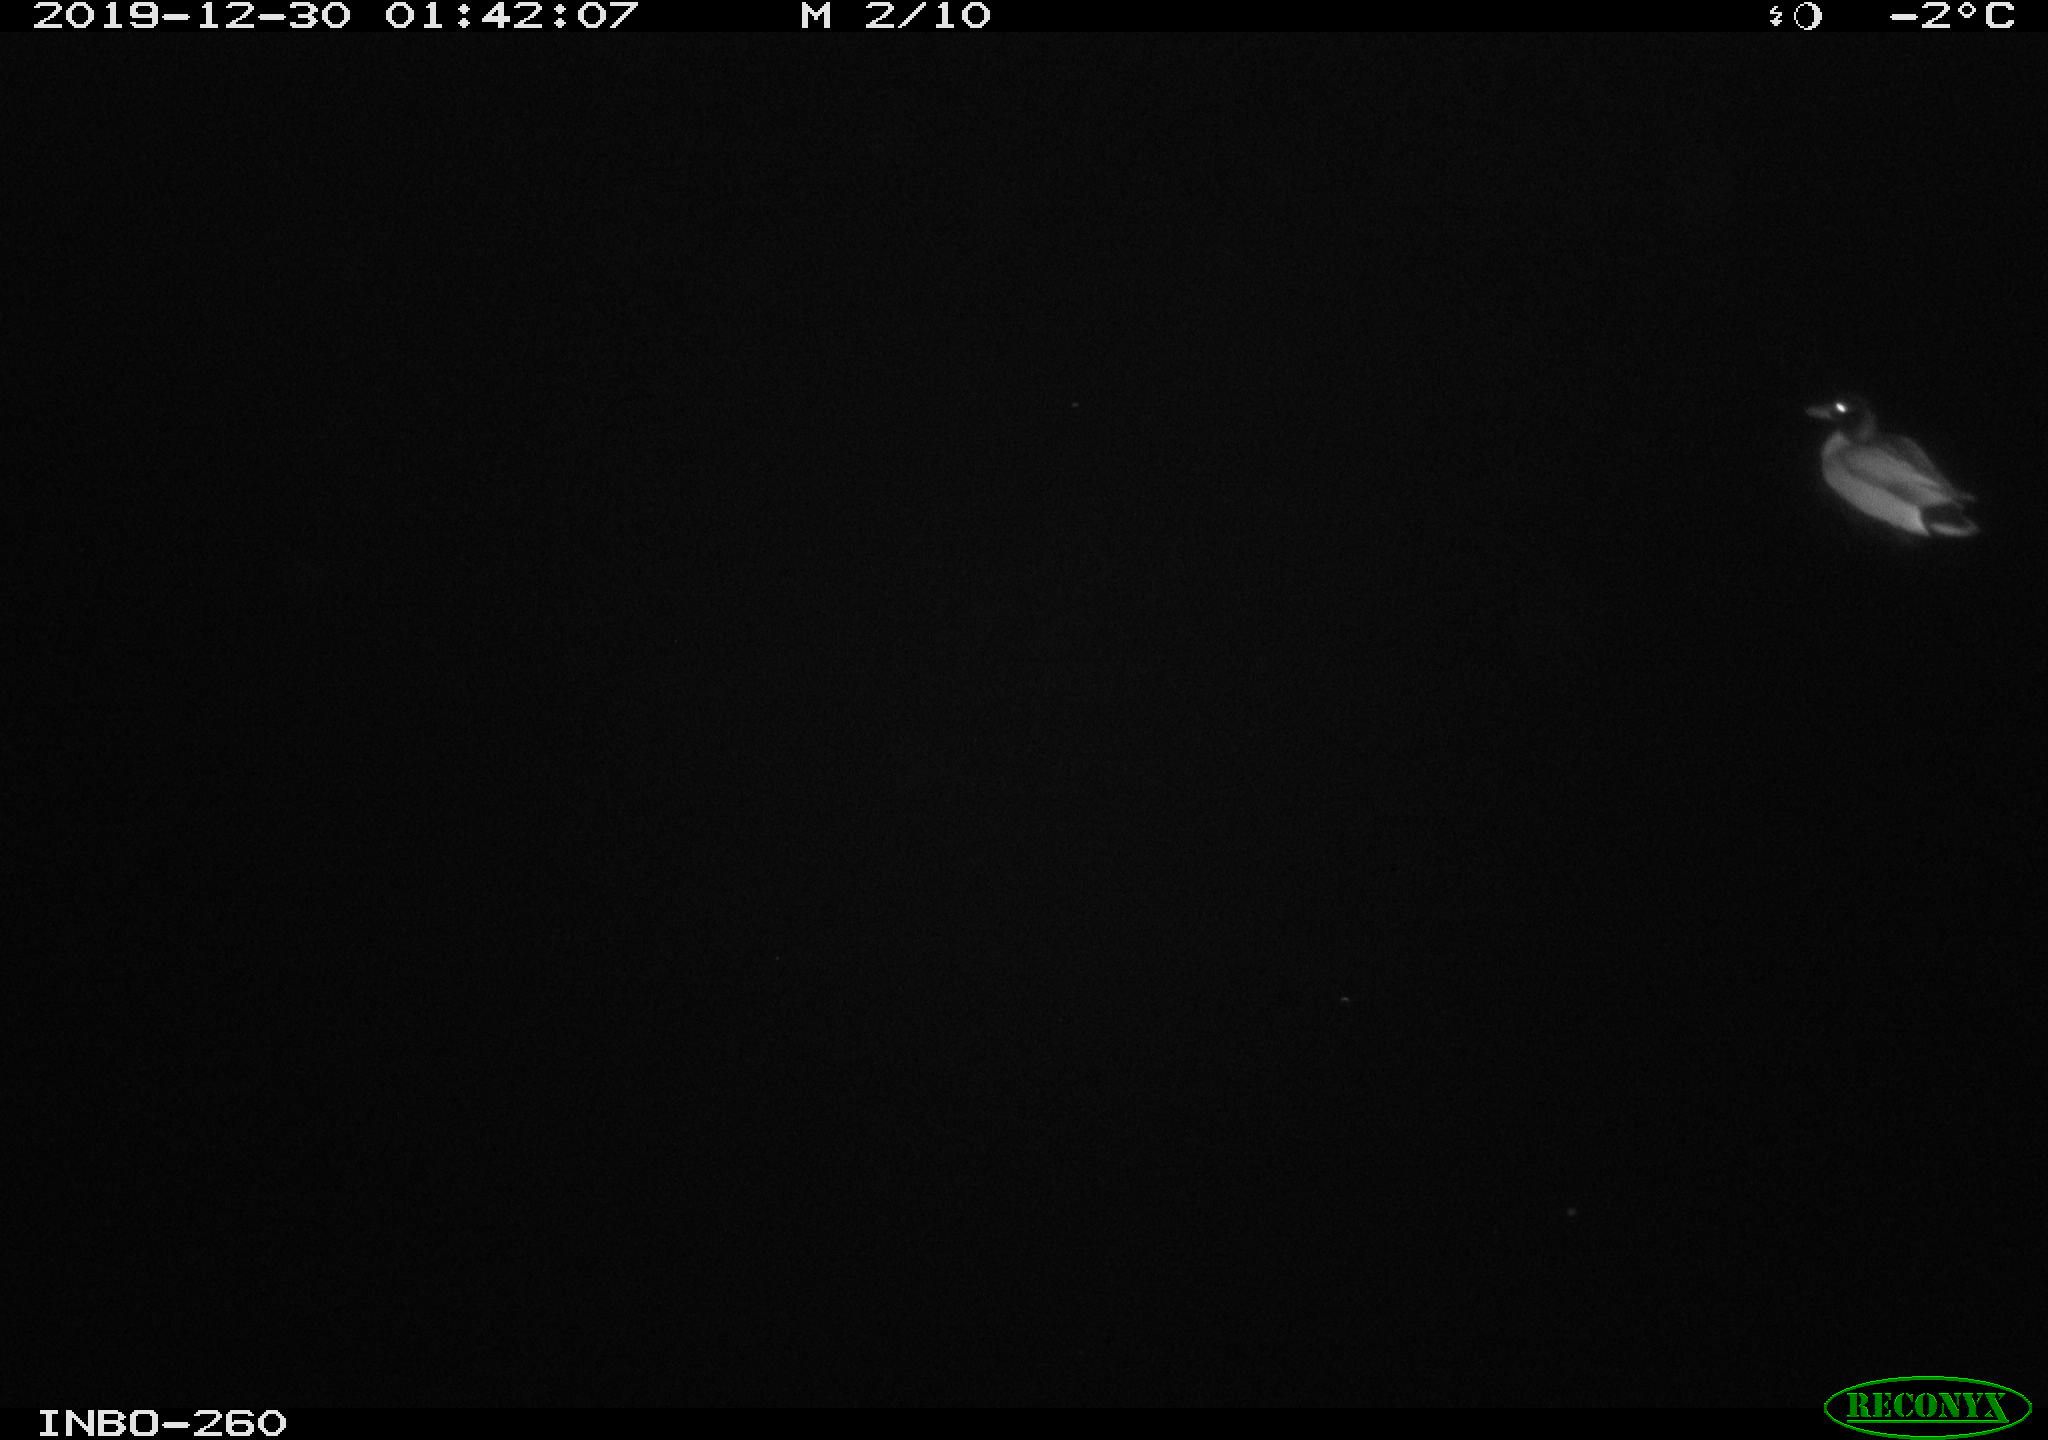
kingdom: Animalia
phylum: Chordata
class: Aves
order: Anseriformes
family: Anatidae
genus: Anas
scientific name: Anas platyrhynchos
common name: Mallard
